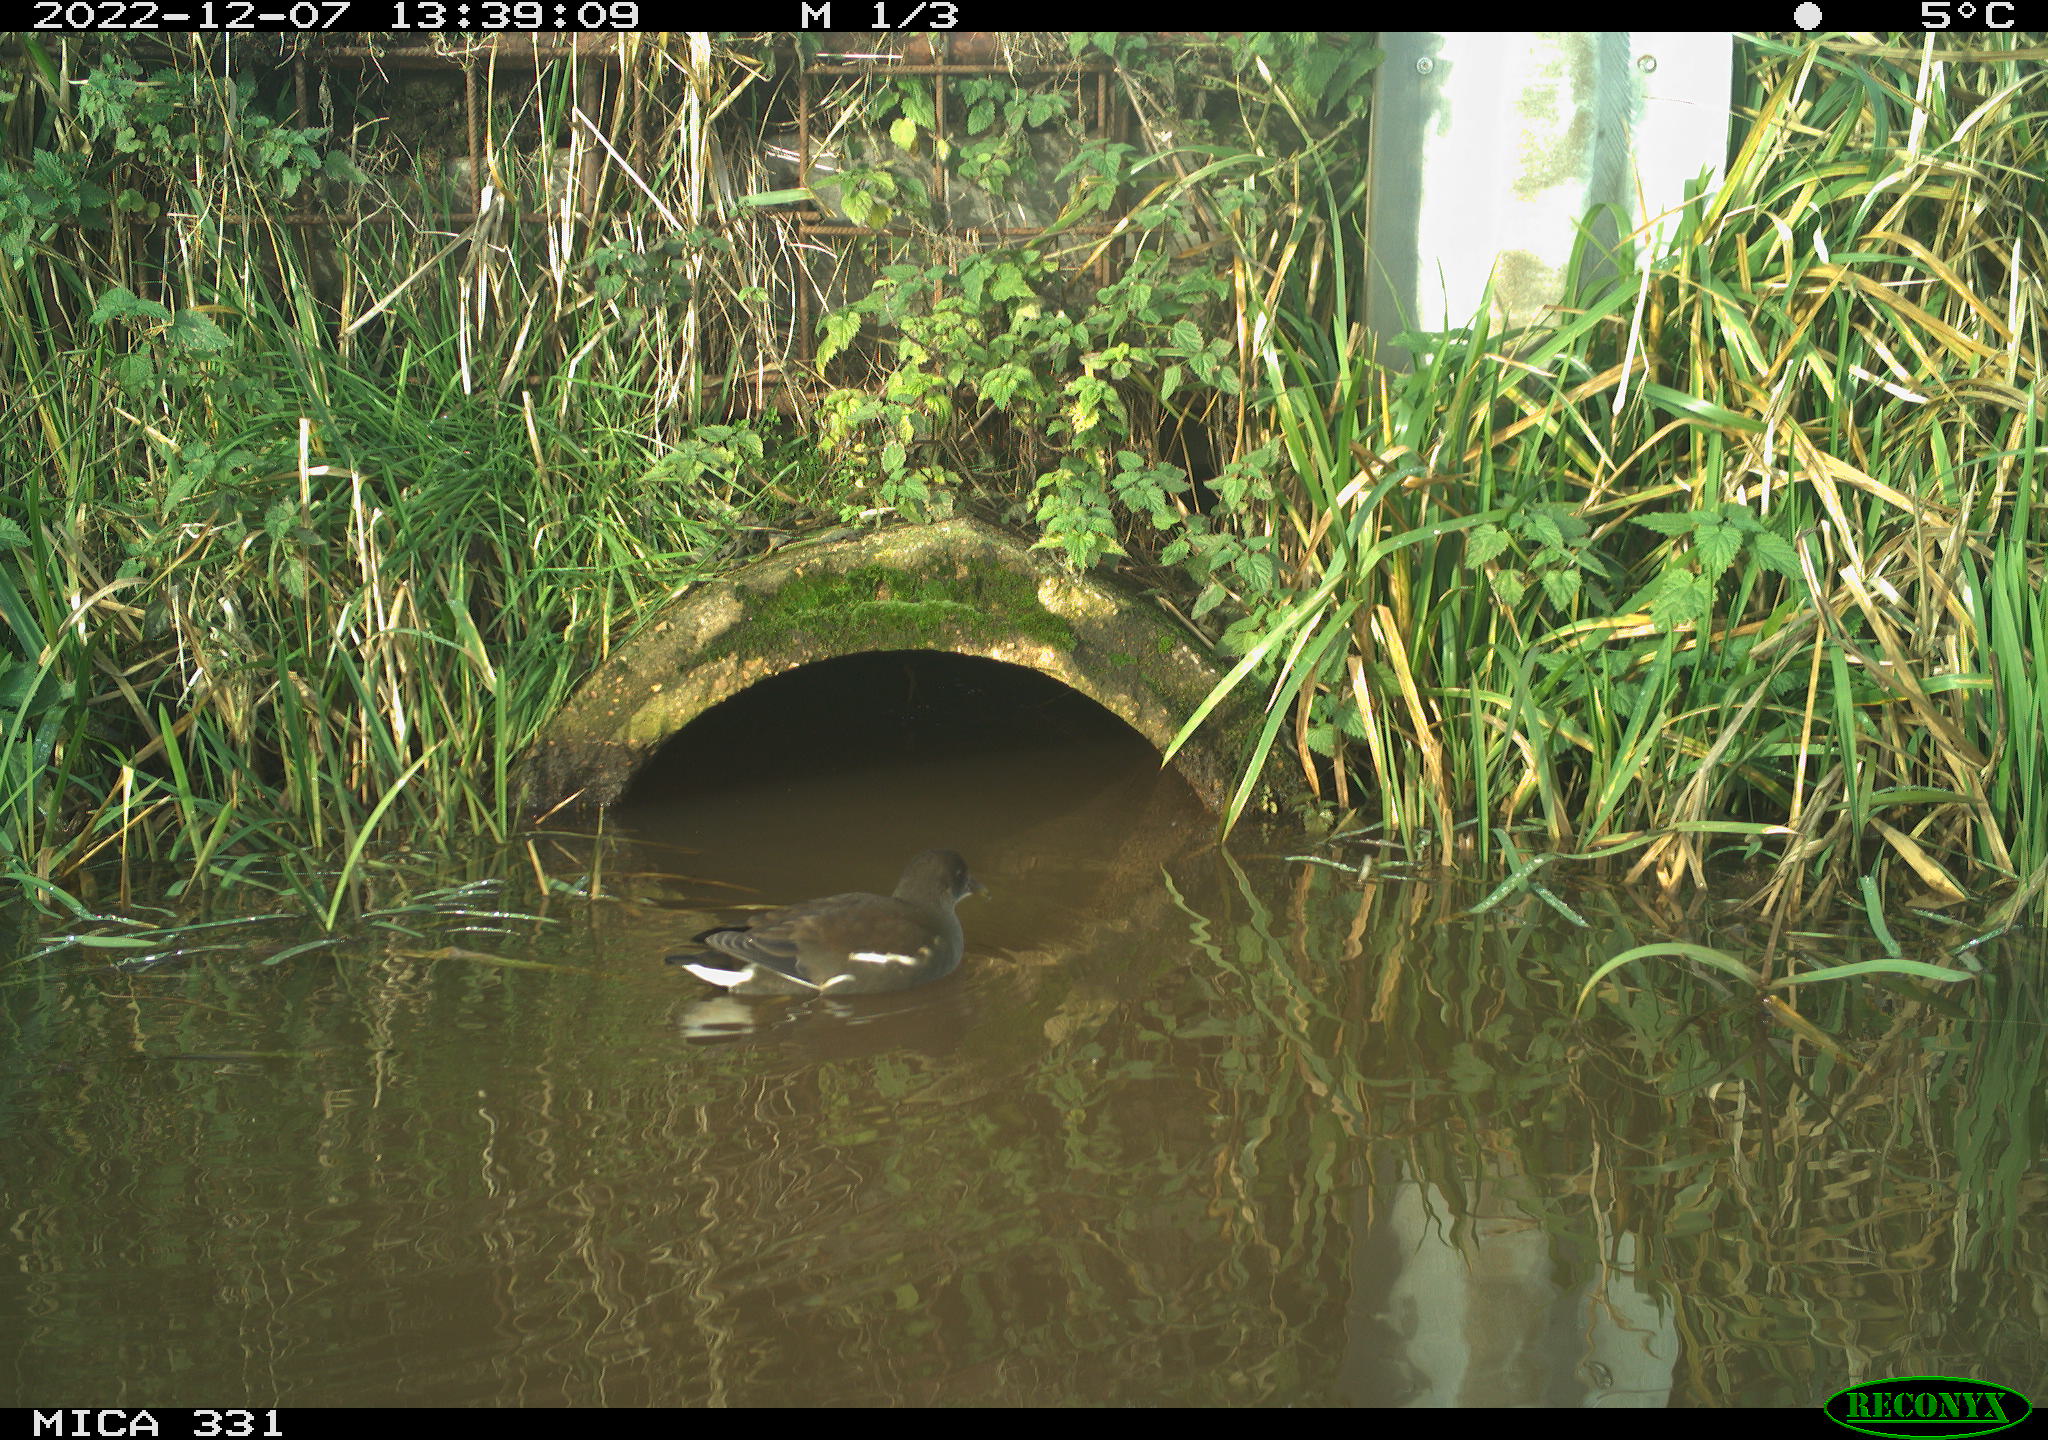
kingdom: Animalia
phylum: Chordata
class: Aves
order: Gruiformes
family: Rallidae
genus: Gallinula
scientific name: Gallinula chloropus
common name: Common moorhen
